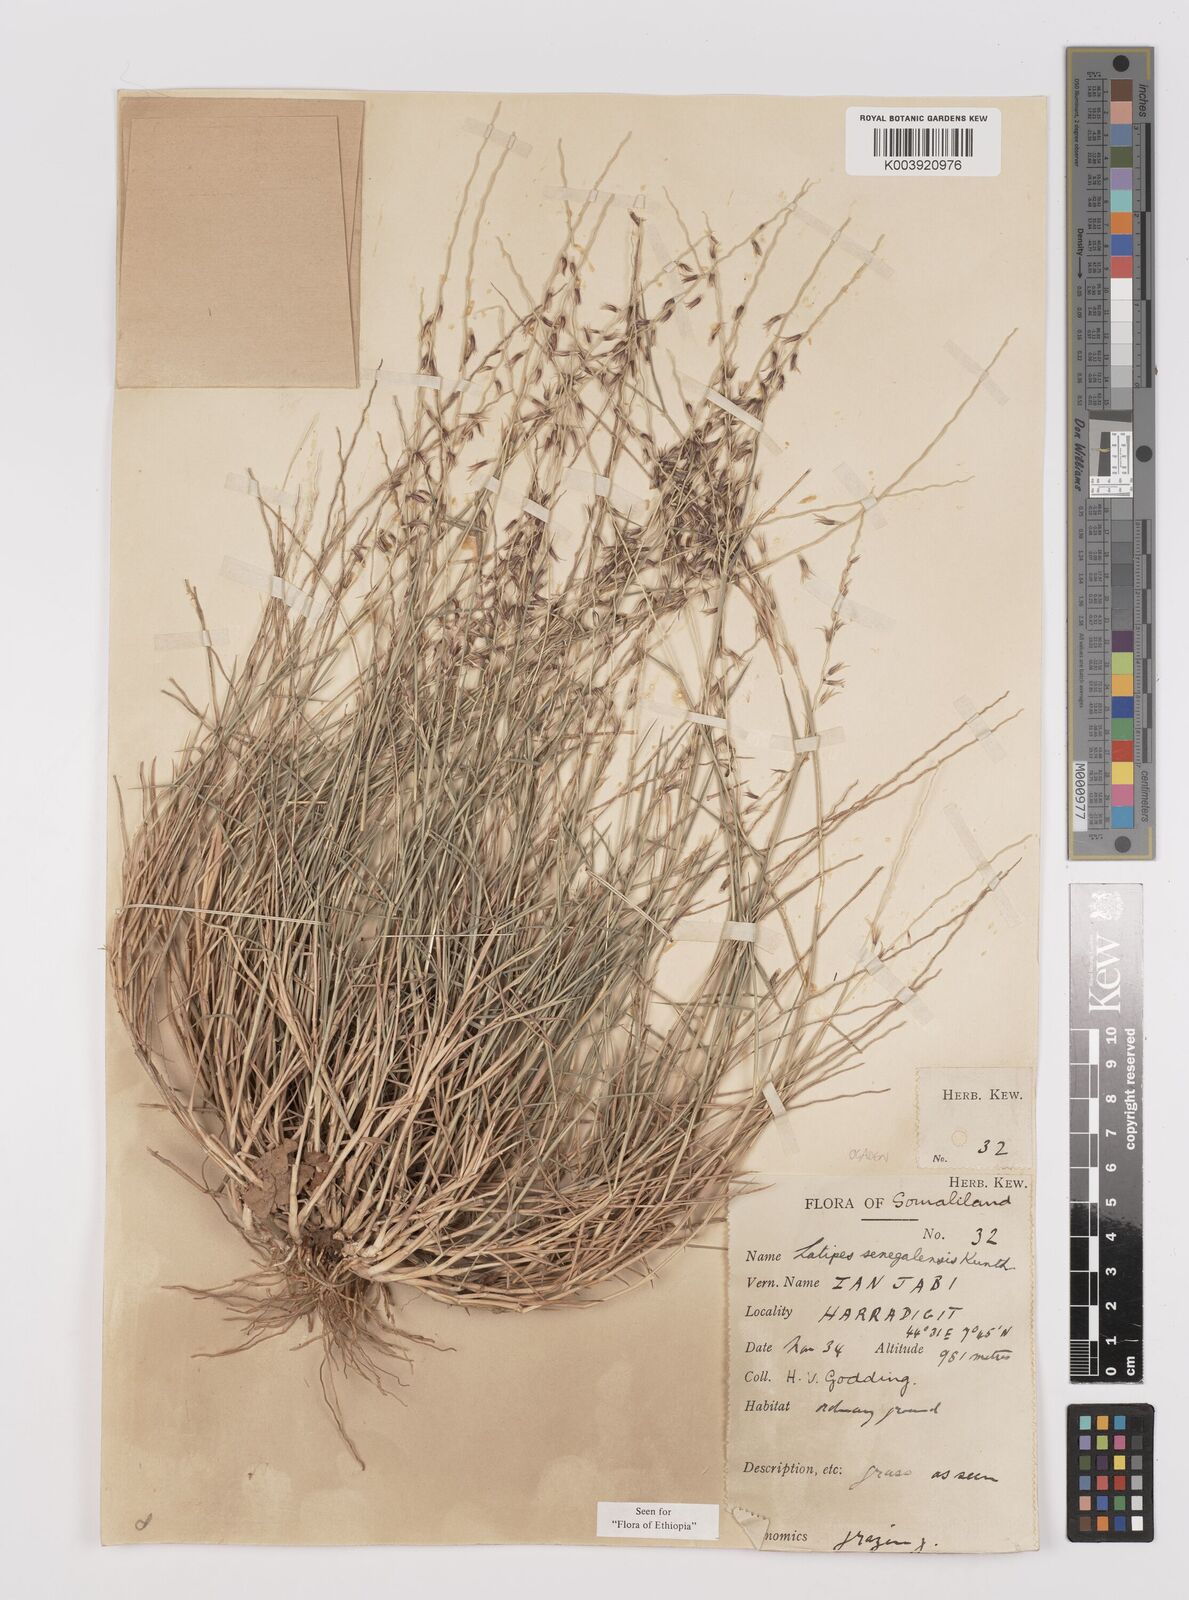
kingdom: Plantae
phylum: Tracheophyta
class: Liliopsida
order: Poales
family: Poaceae
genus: Leptothrium
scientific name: Leptothrium senegalense
